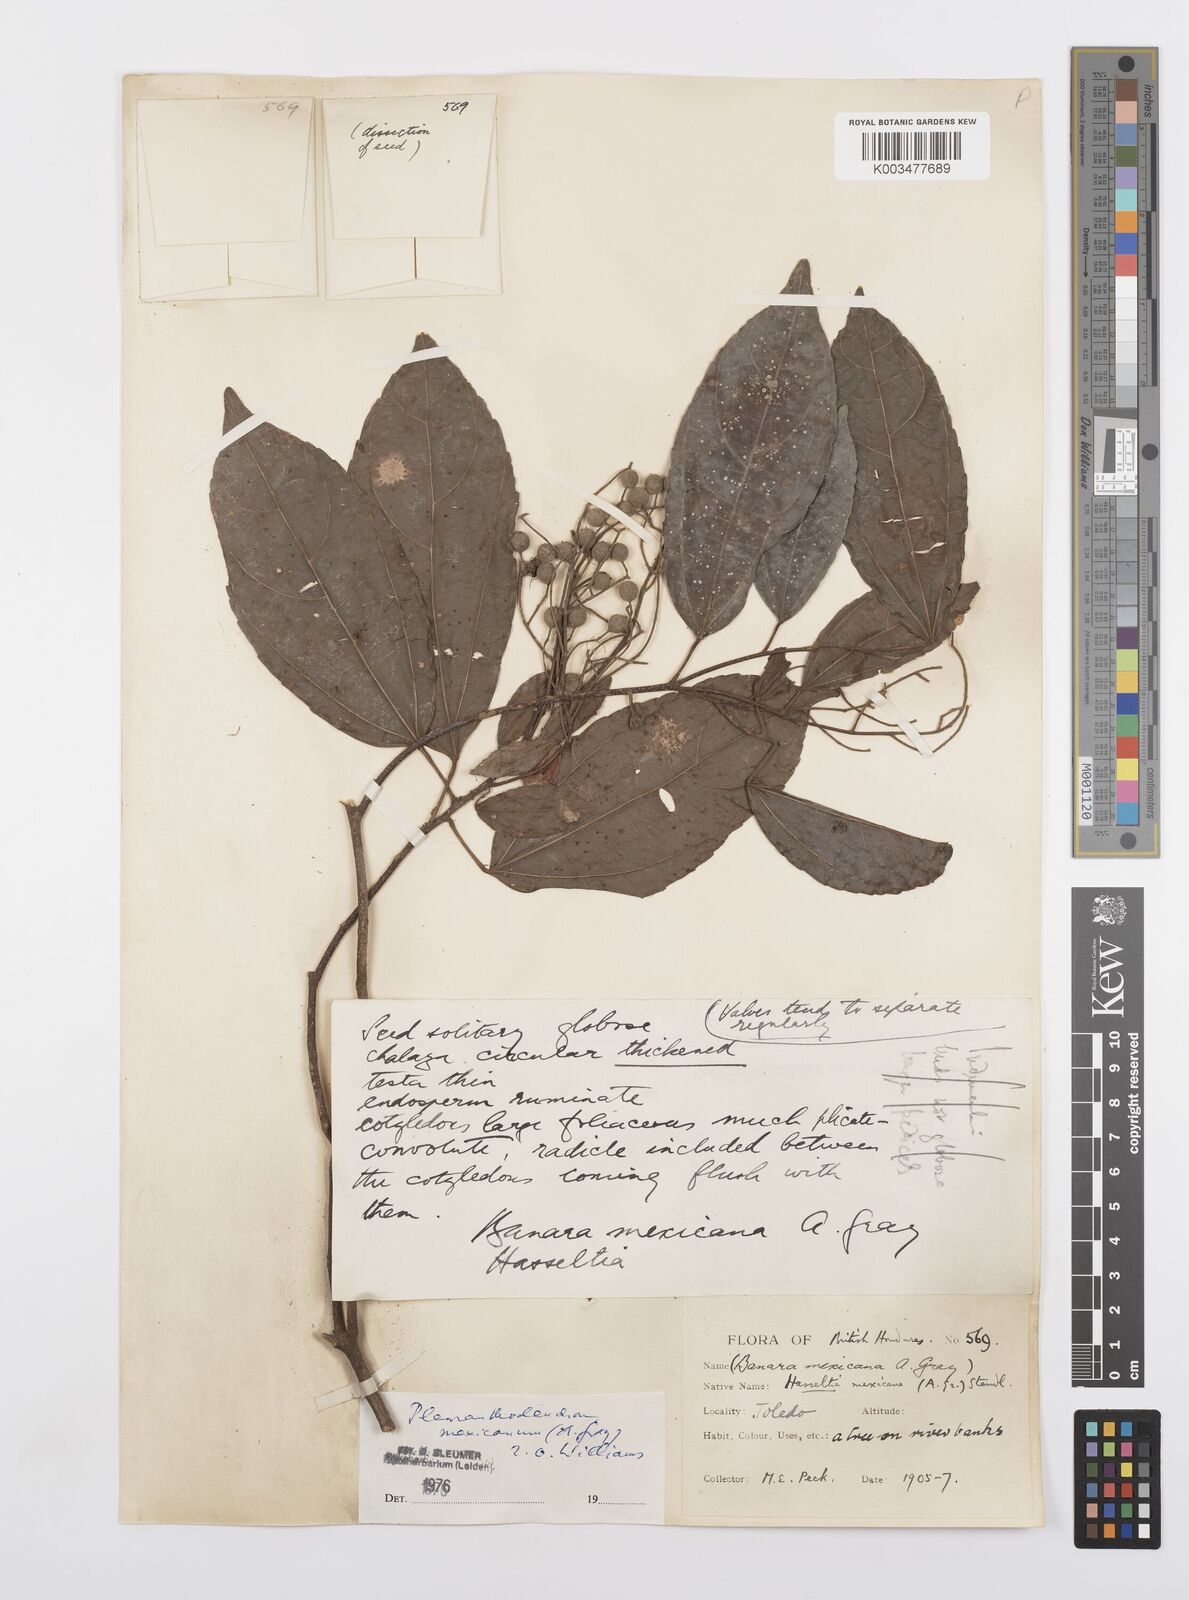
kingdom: Plantae
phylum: Tracheophyta
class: Magnoliopsida
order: Malpighiales
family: Salicaceae
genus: Pleuranthodendron
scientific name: Pleuranthodendron lindenii
